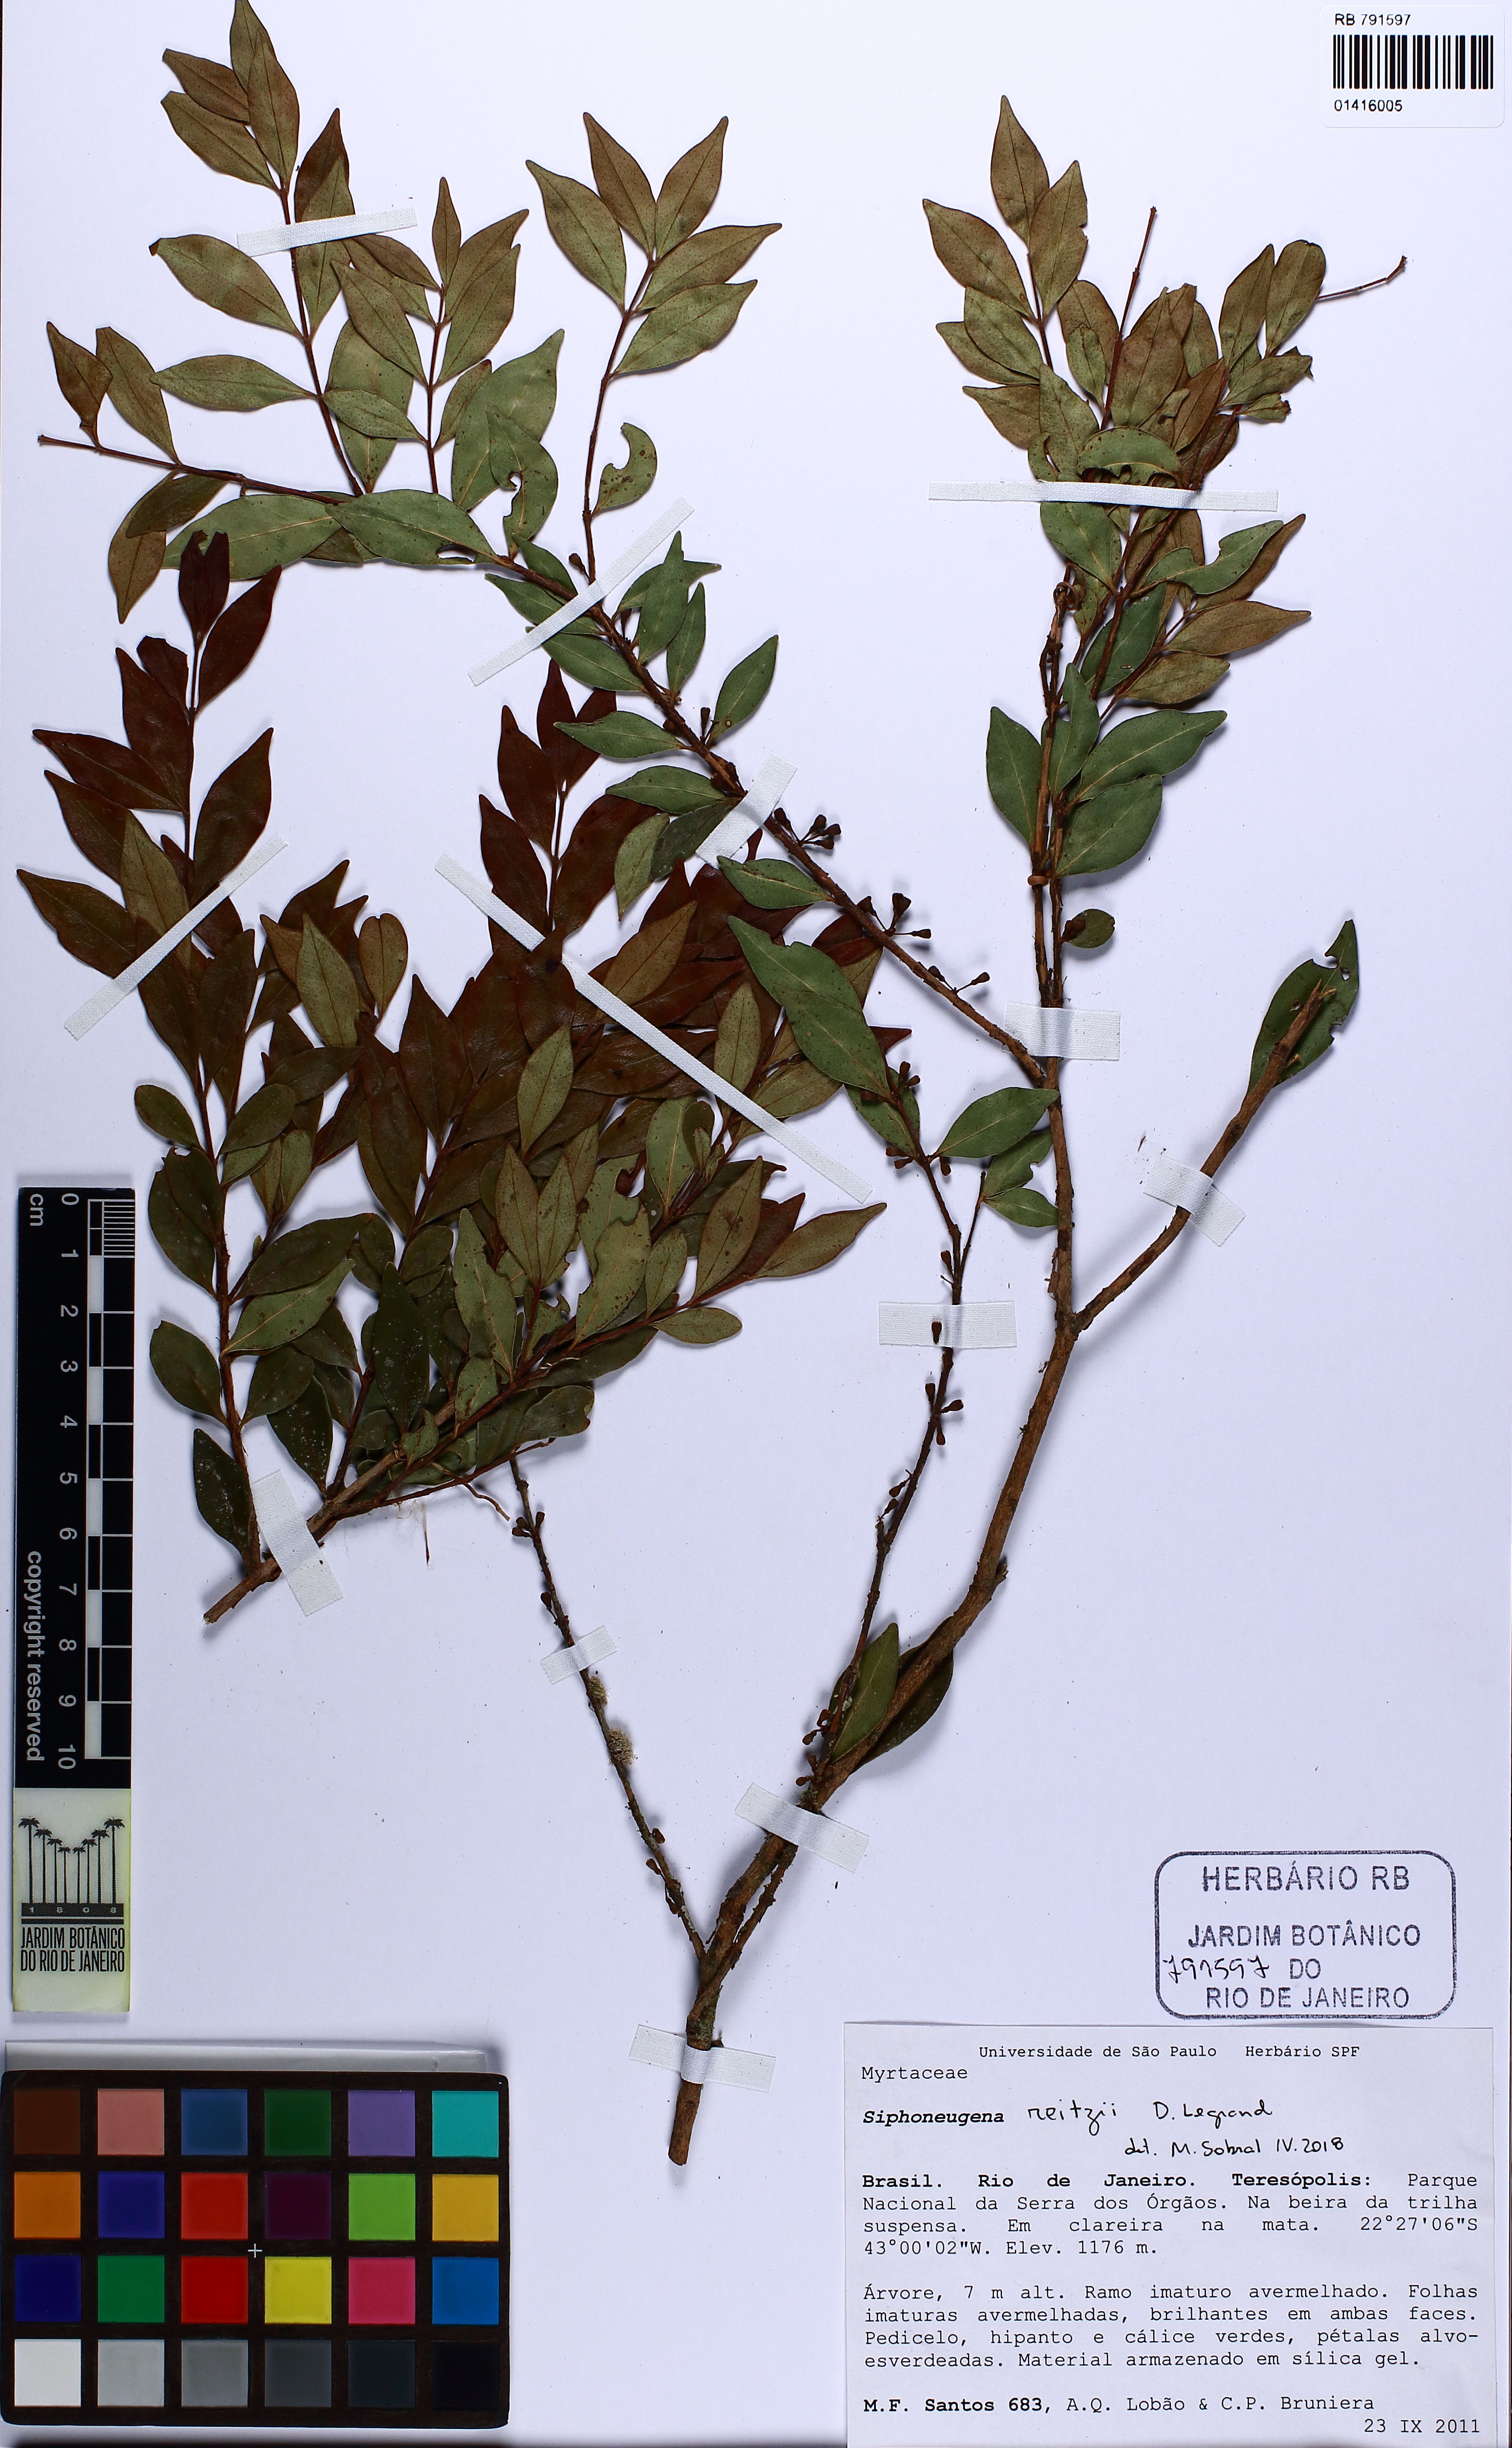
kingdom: Plantae
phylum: Tracheophyta
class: Magnoliopsida
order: Myrtales
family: Myrtaceae
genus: Siphoneugena
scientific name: Siphoneugena reitzii
